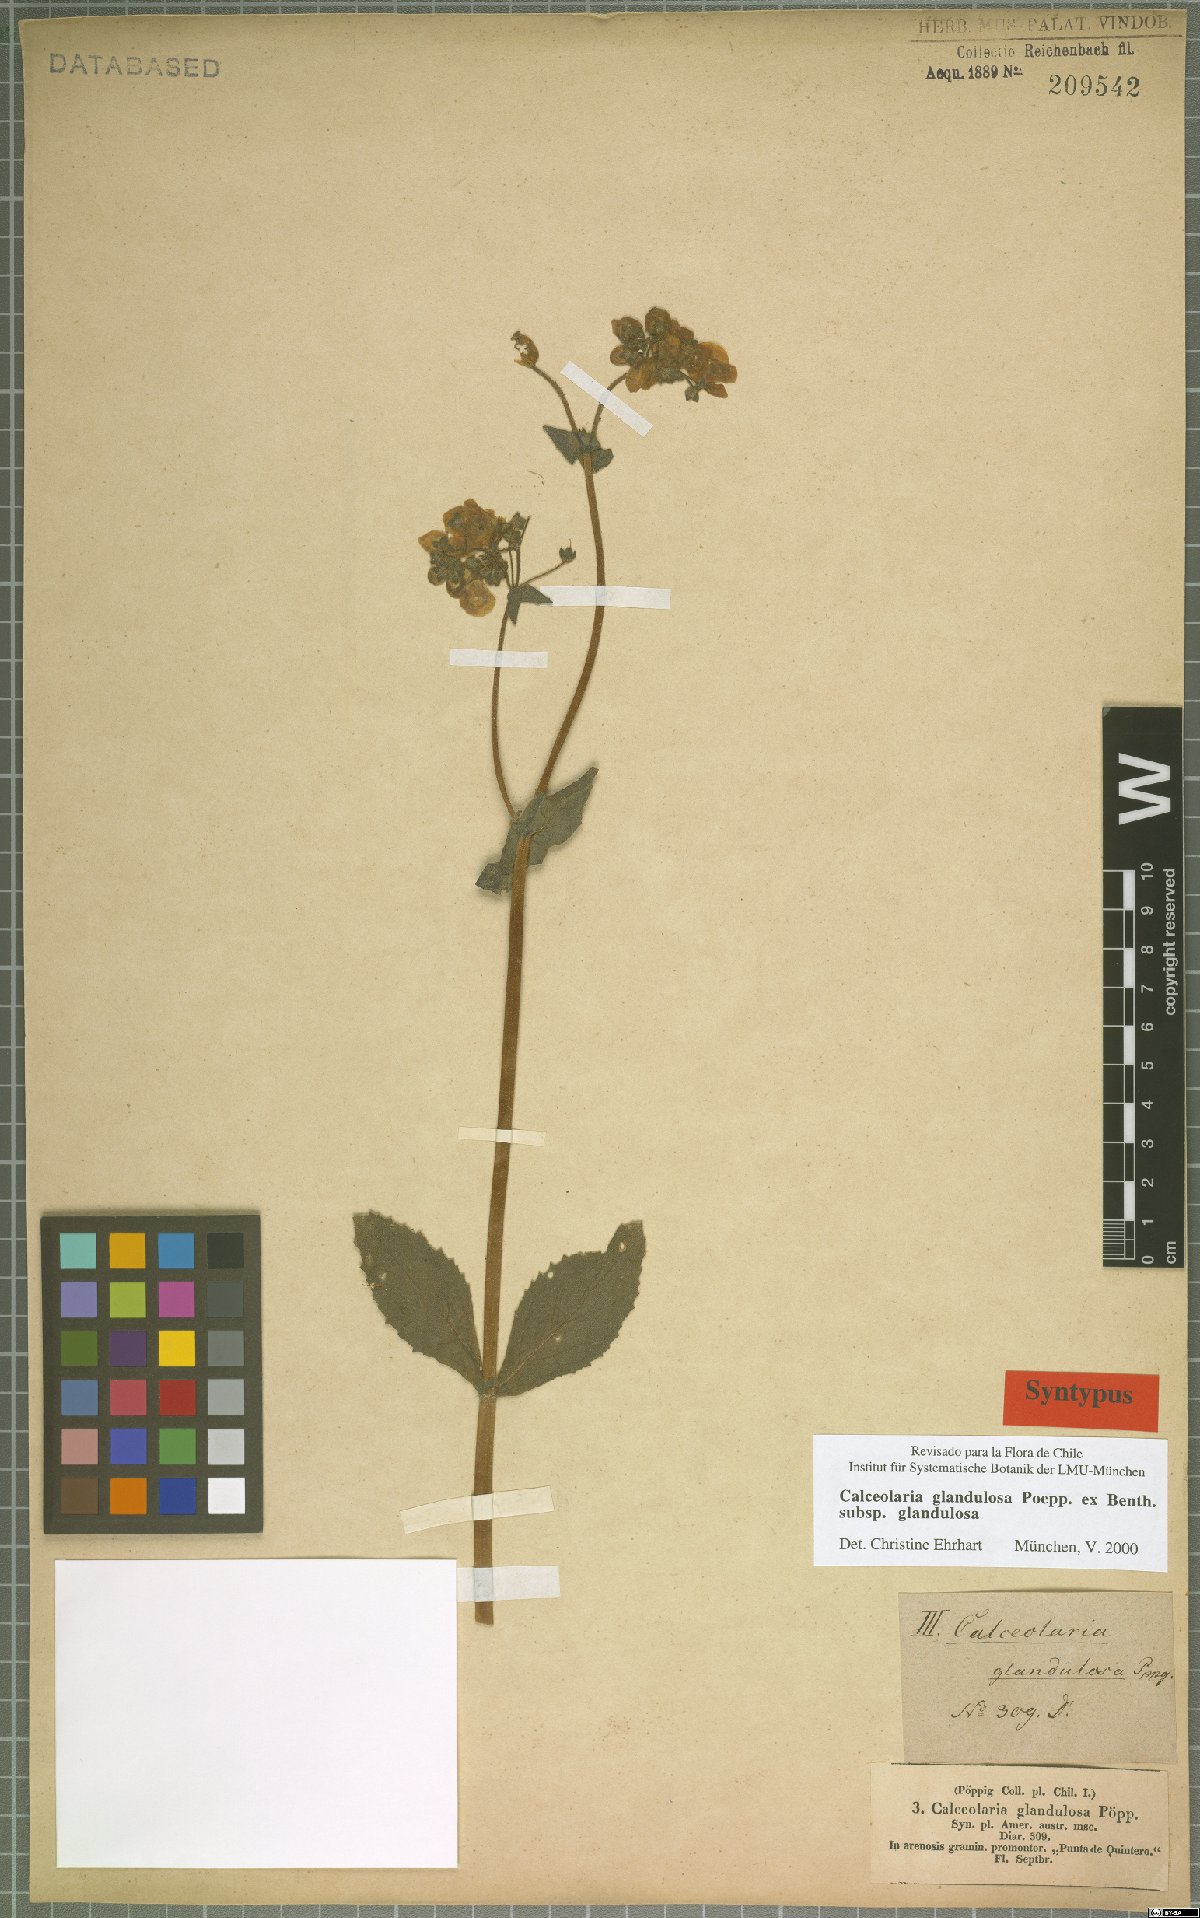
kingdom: Plantae
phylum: Tracheophyta
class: Magnoliopsida
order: Lamiales
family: Calceolariaceae
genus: Calceolaria
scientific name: Calceolaria glandulosa
